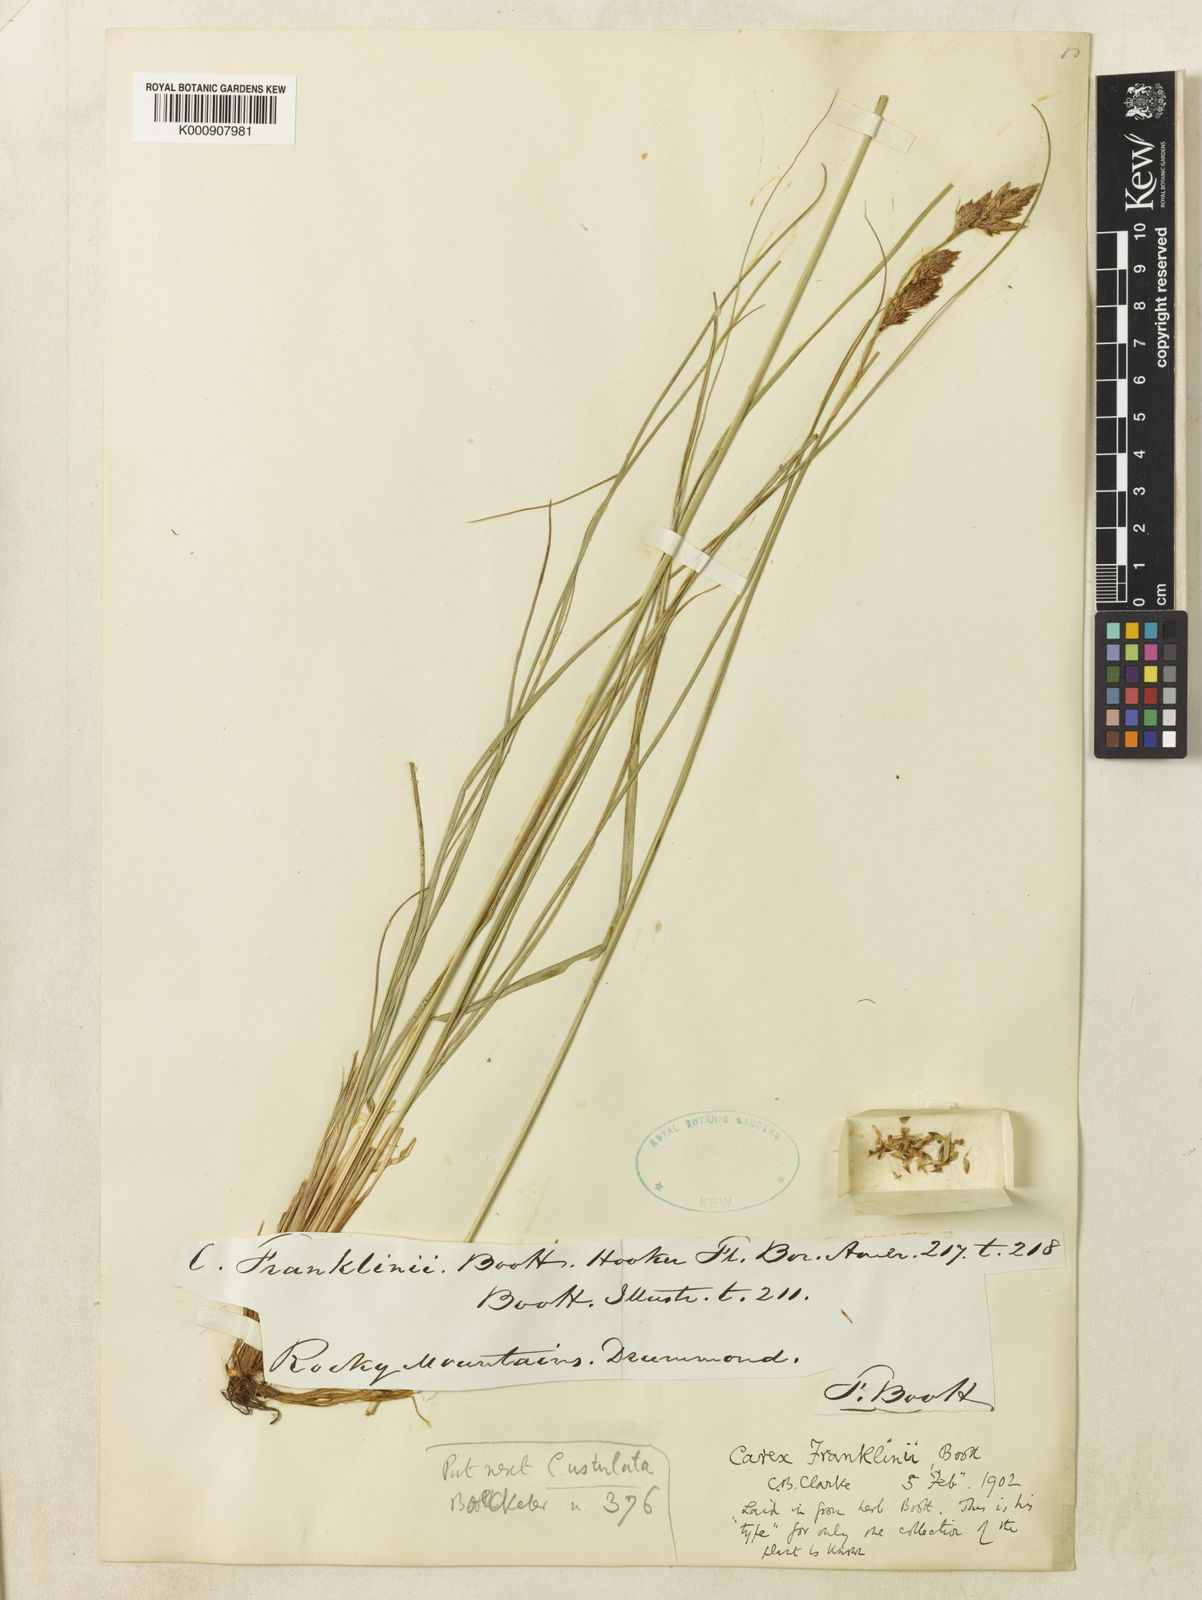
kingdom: Plantae
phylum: Tracheophyta
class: Liliopsida
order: Poales
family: Cyperaceae
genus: Carex
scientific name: Carex petricosa
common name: Rock sedge
